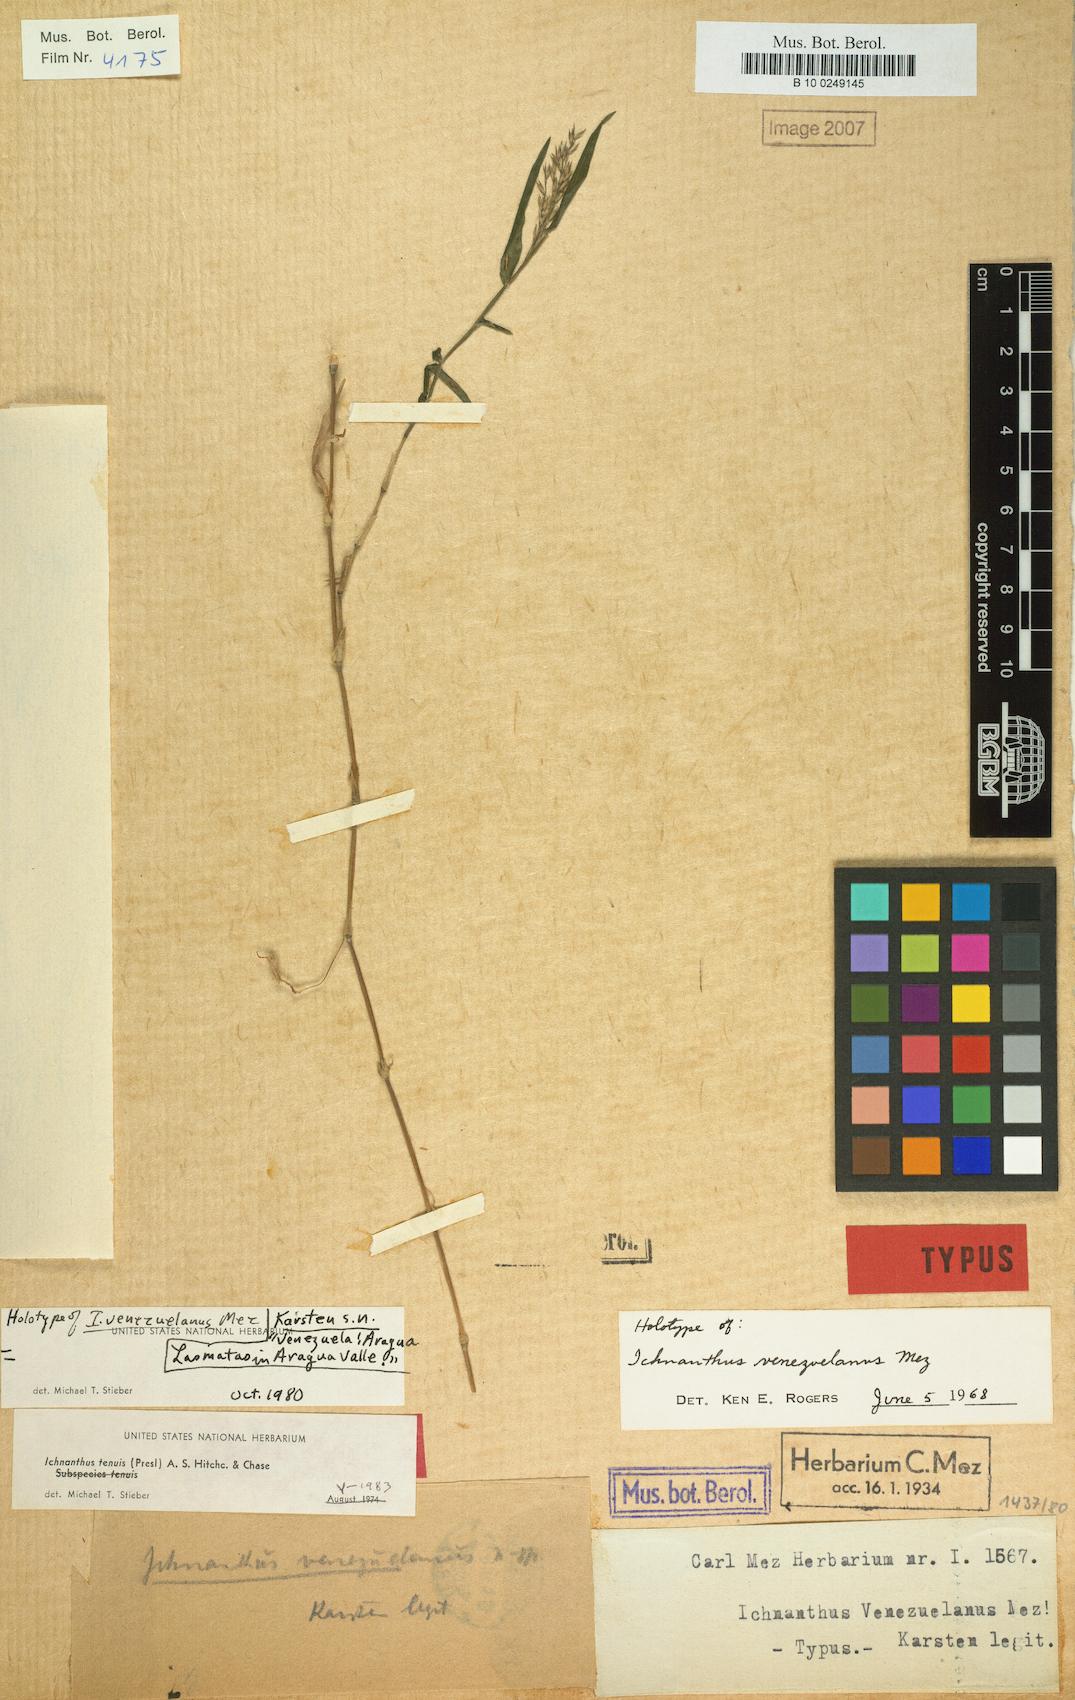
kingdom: Plantae
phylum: Tracheophyta
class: Liliopsida
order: Poales
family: Poaceae
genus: Ichnanthus
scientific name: Ichnanthus tenuis
